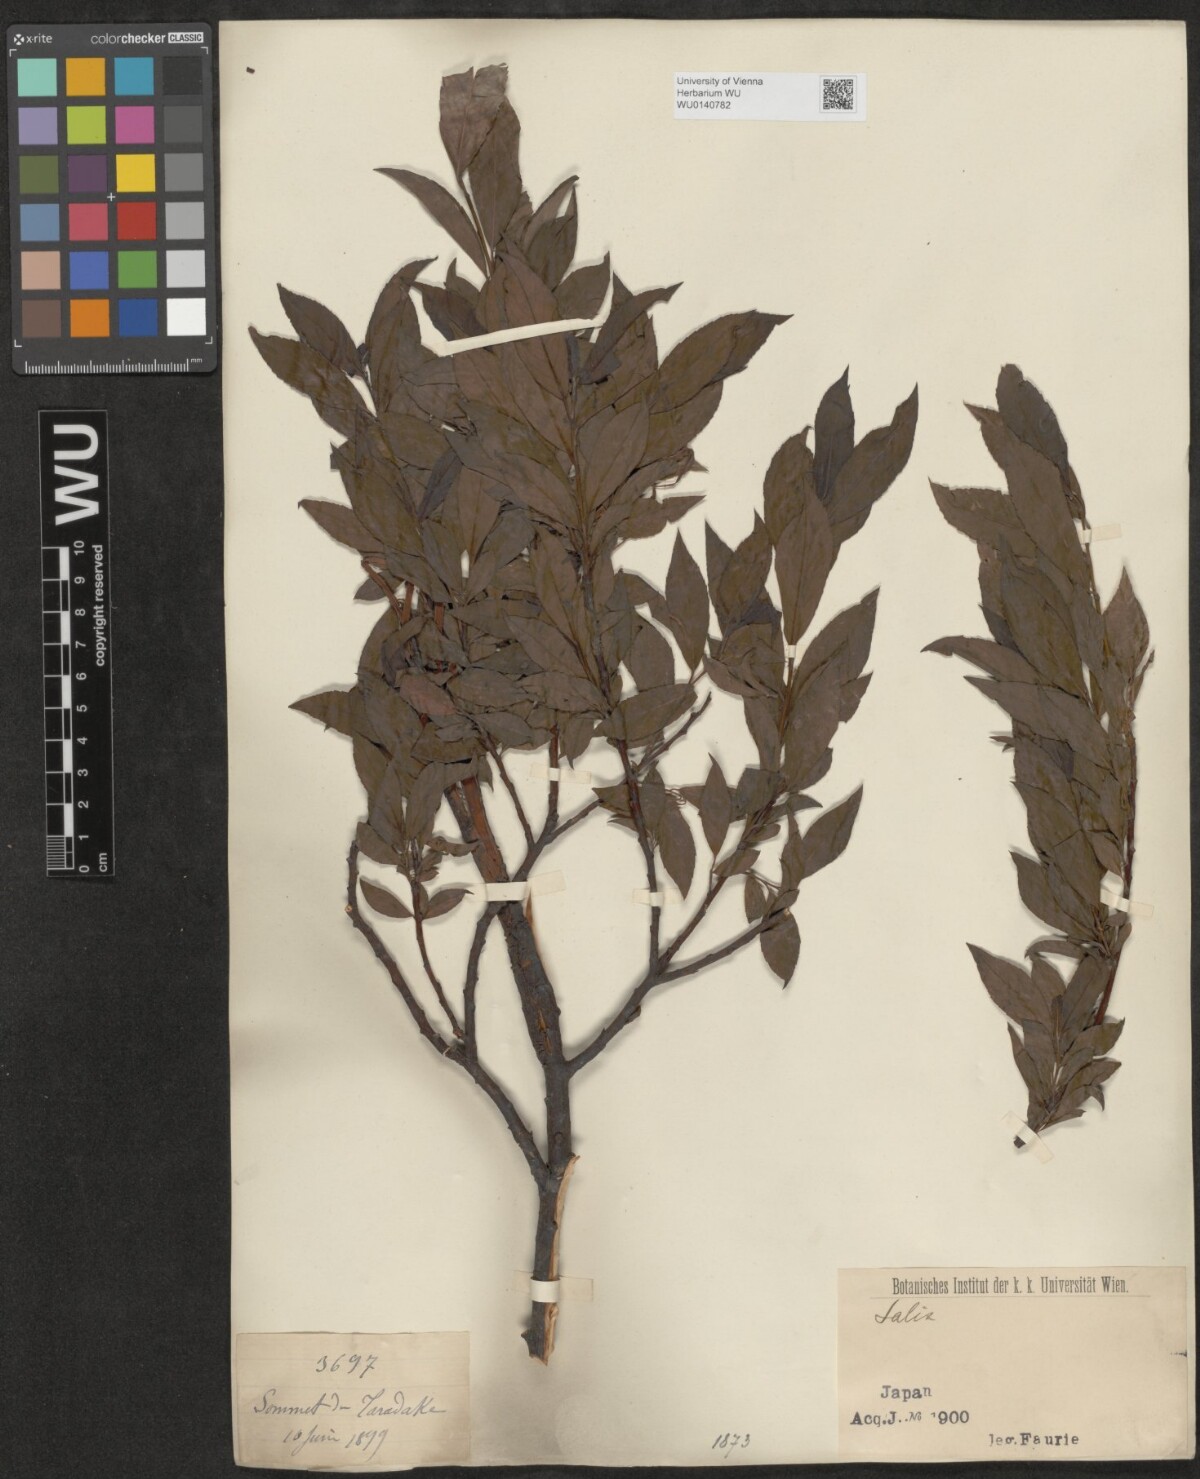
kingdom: Plantae
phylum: Tracheophyta
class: Magnoliopsida
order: Malpighiales
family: Salicaceae
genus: Salix
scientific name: Salix
